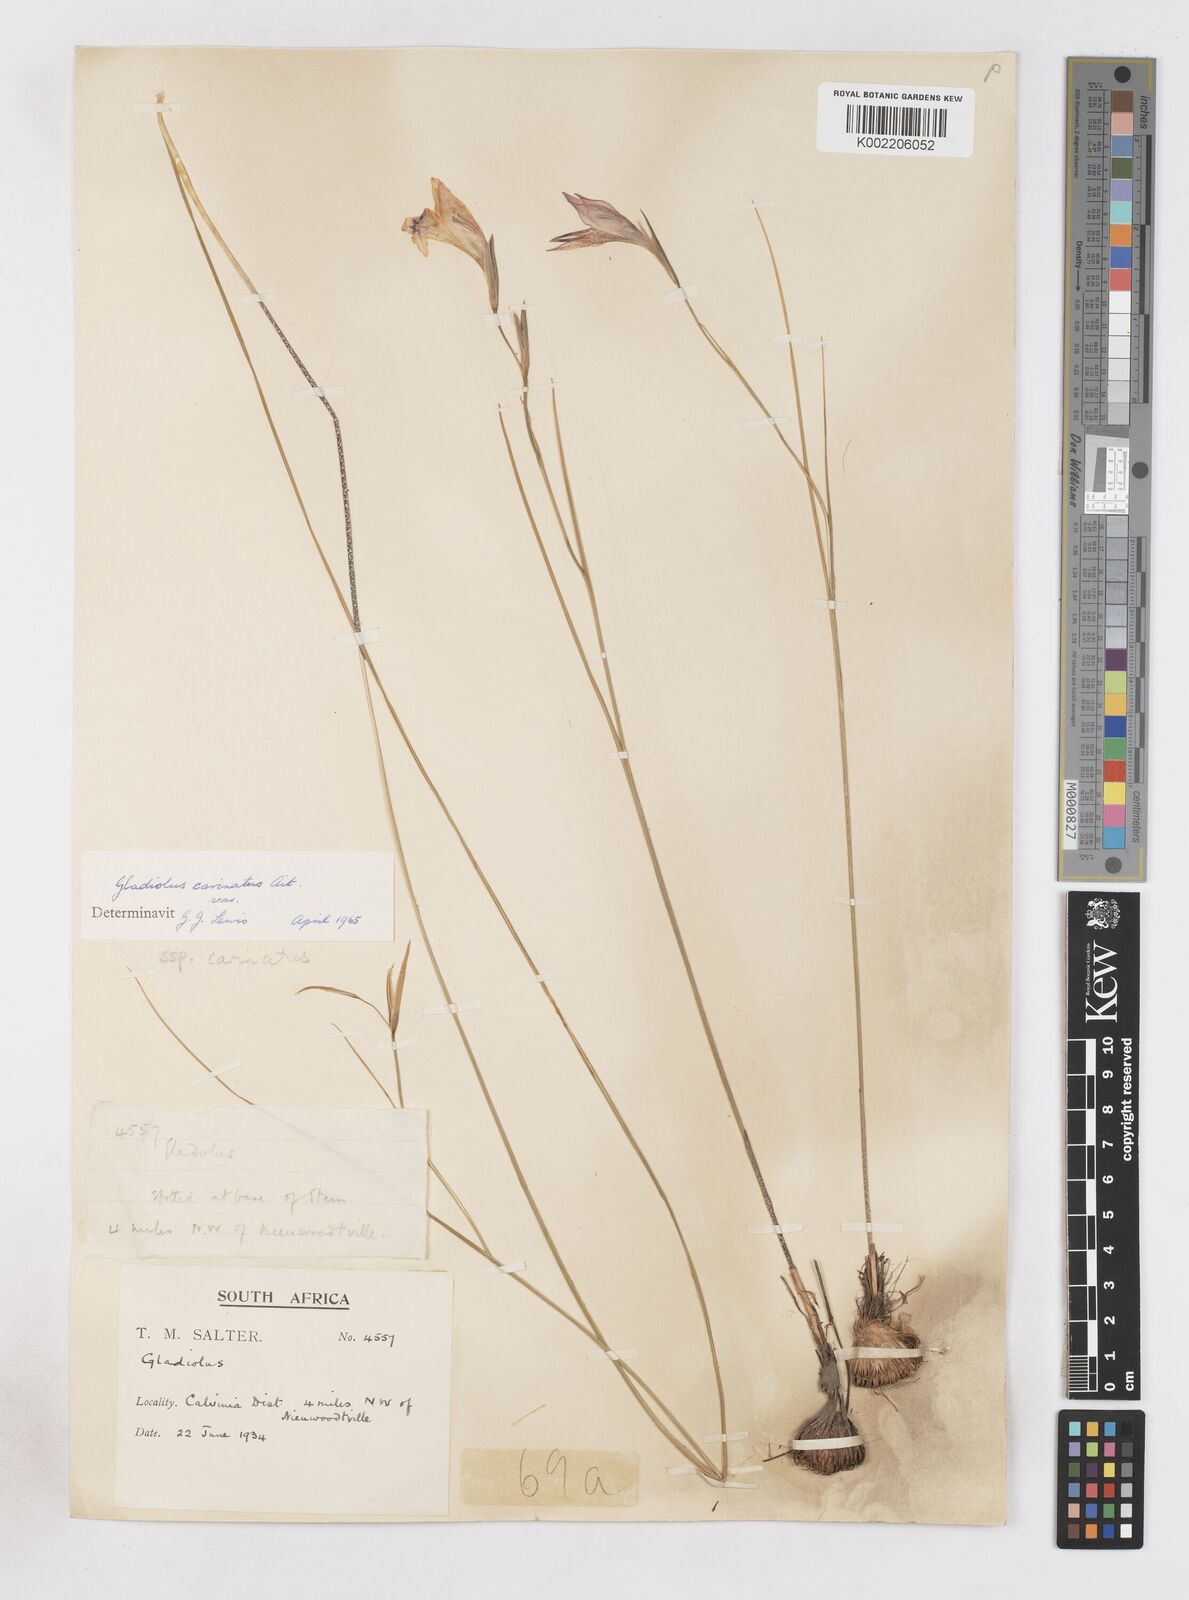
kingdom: Plantae
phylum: Tracheophyta
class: Liliopsida
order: Asparagales
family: Iridaceae
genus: Gladiolus
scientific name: Gladiolus carinatus
